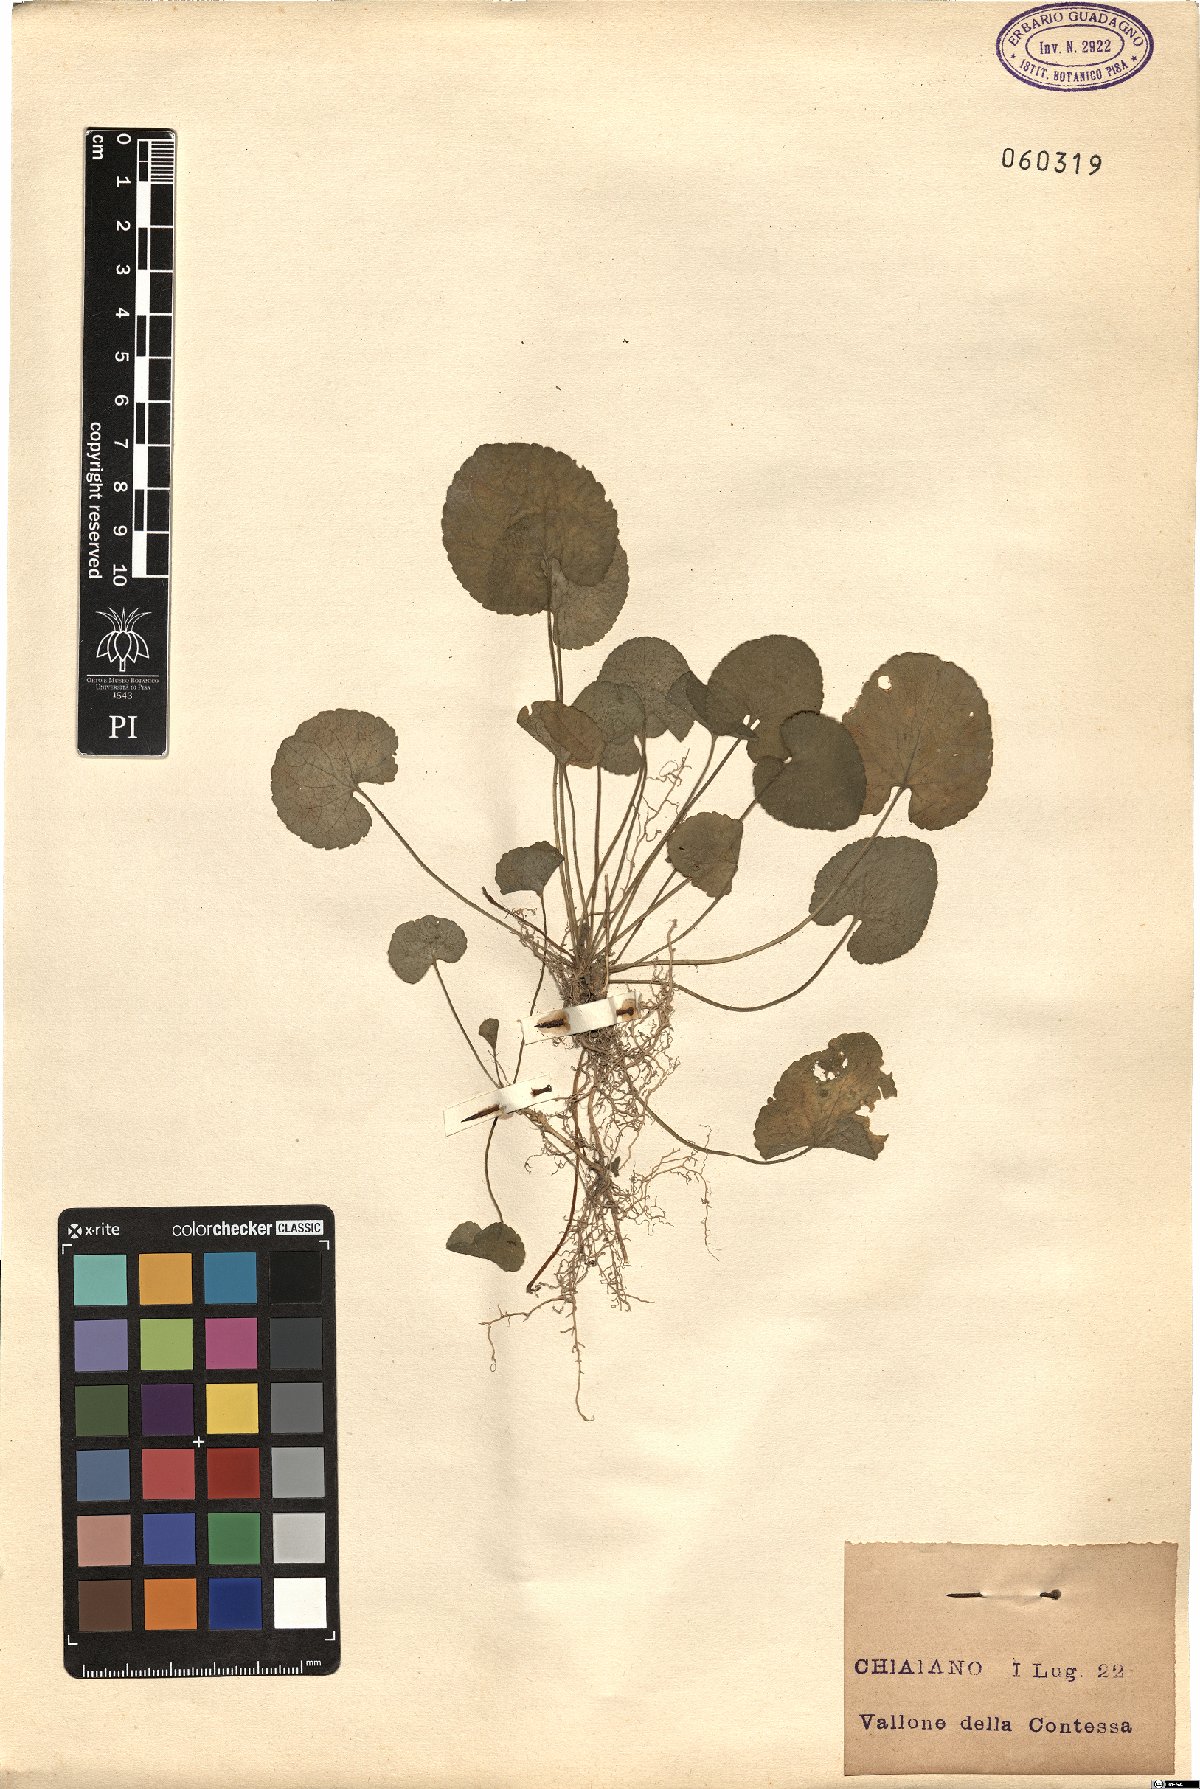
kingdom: Plantae
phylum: Tracheophyta
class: Magnoliopsida
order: Malpighiales
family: Violaceae
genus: Viola
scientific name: Viola
